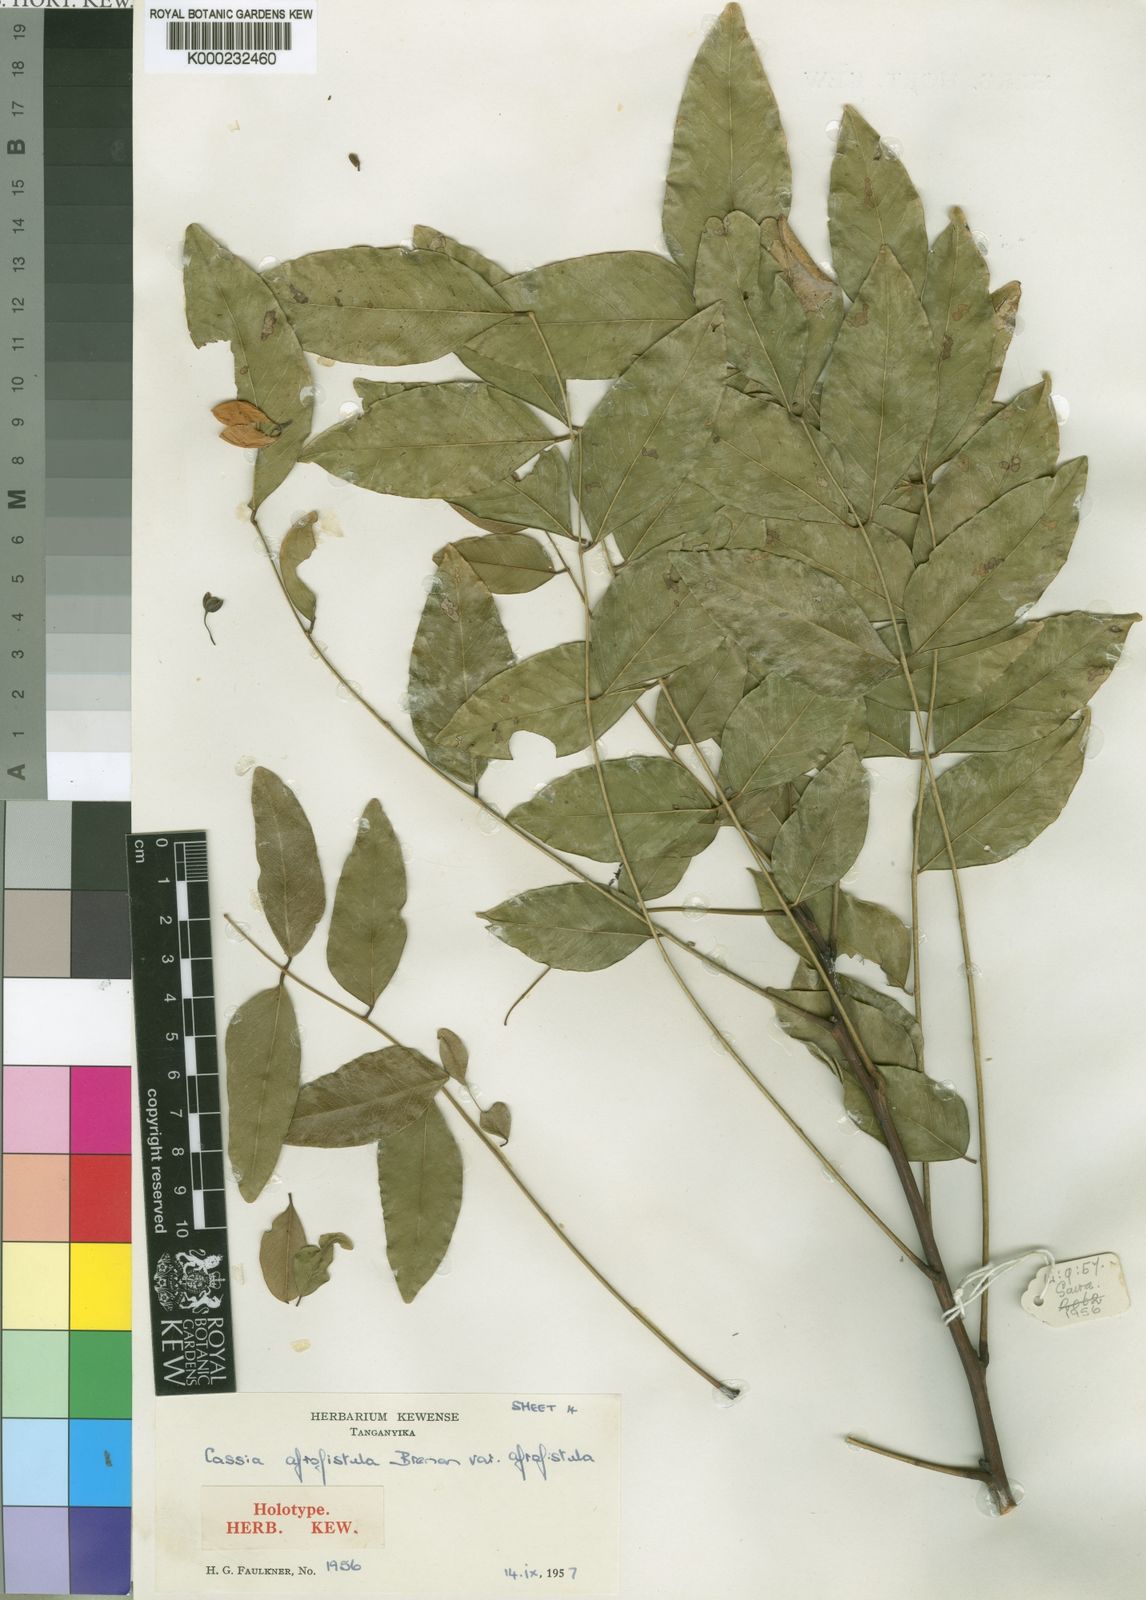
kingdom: Plantae
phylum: Tracheophyta
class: Magnoliopsida
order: Fabales
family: Fabaceae
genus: Cassia
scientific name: Cassia afrofistula
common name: Kenyan shower
